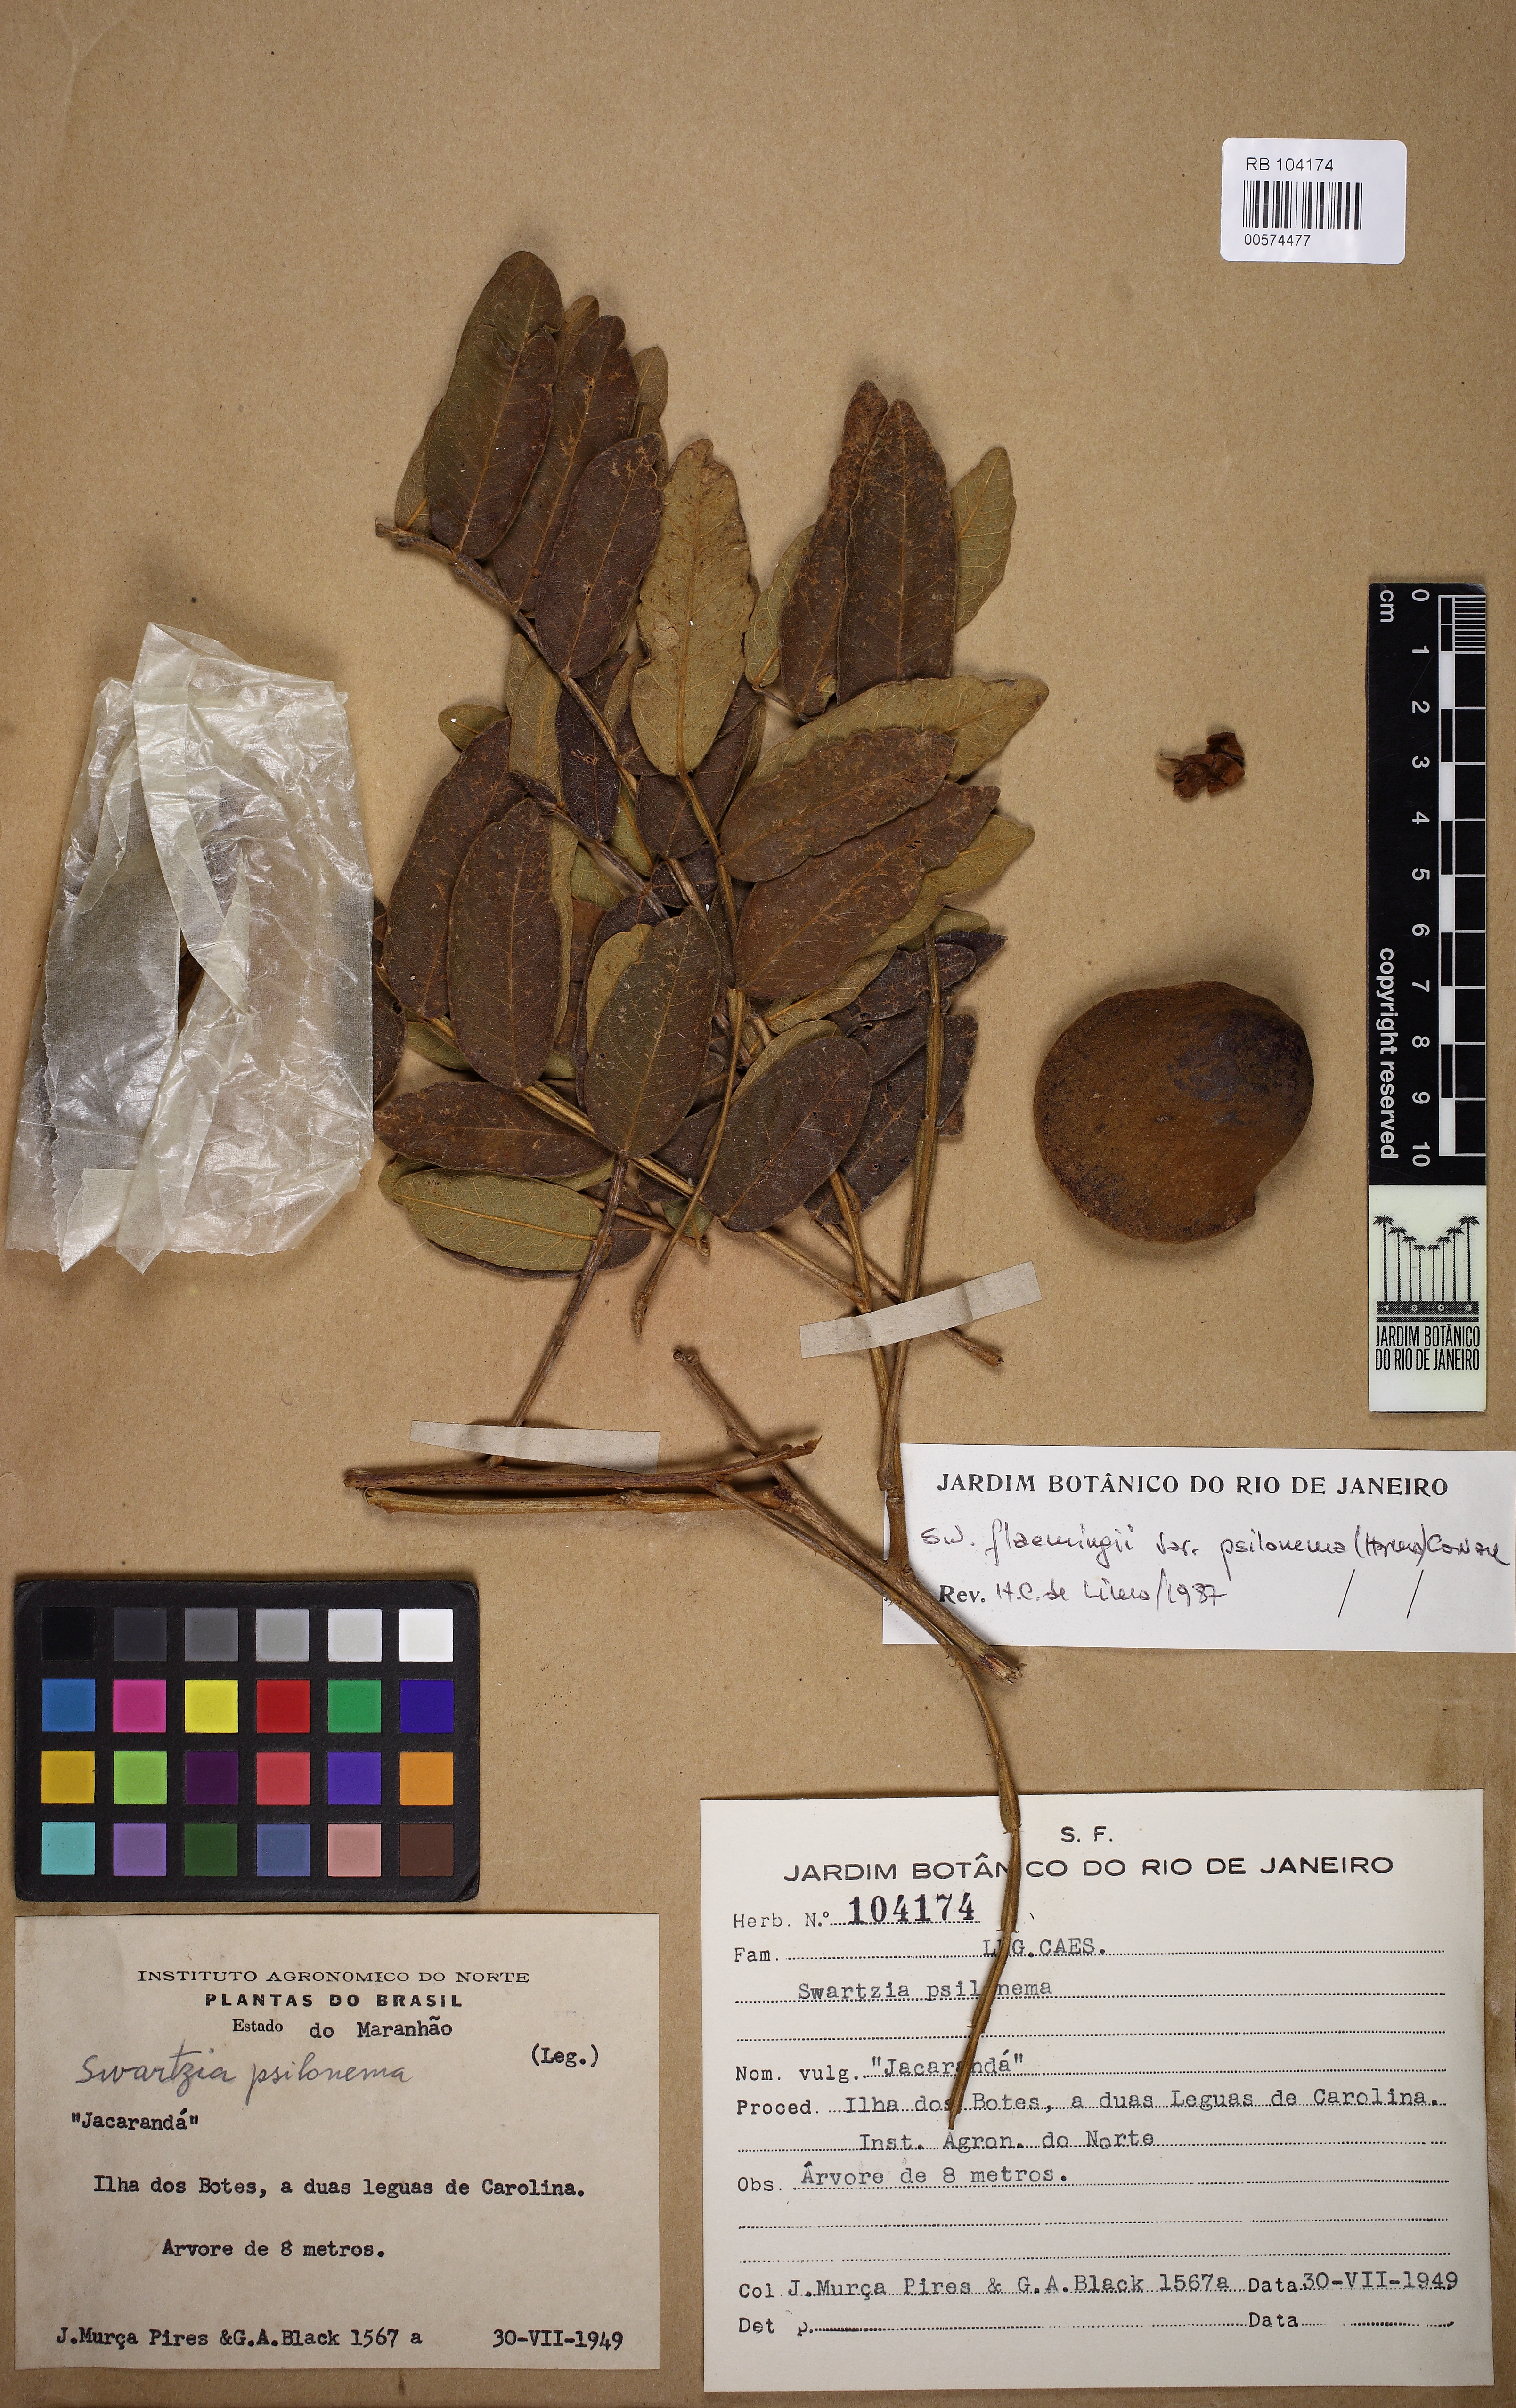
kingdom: Plantae
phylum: Tracheophyta
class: Magnoliopsida
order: Fabales
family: Fabaceae
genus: Swartzia
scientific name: Swartzia psilonema
